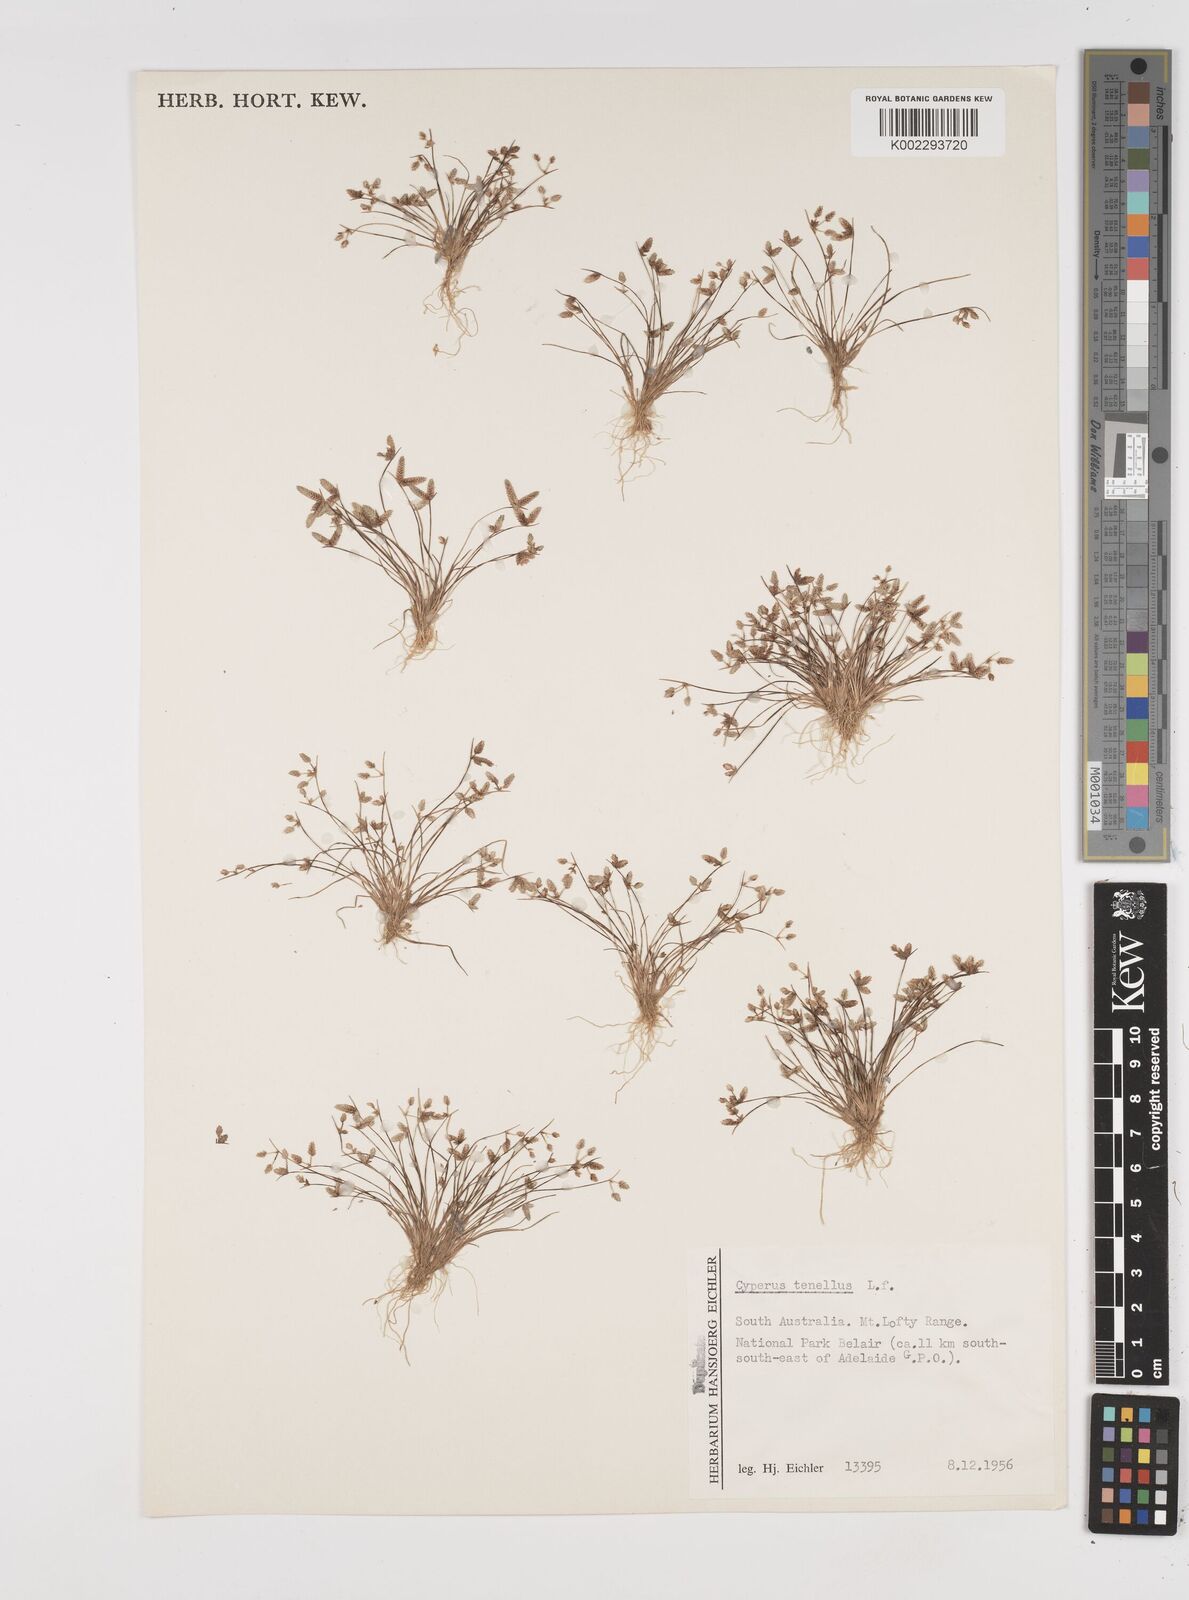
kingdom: Plantae
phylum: Tracheophyta
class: Liliopsida
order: Poales
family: Cyperaceae
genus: Isolepis
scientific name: Isolepis levynsiana
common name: Sedge
